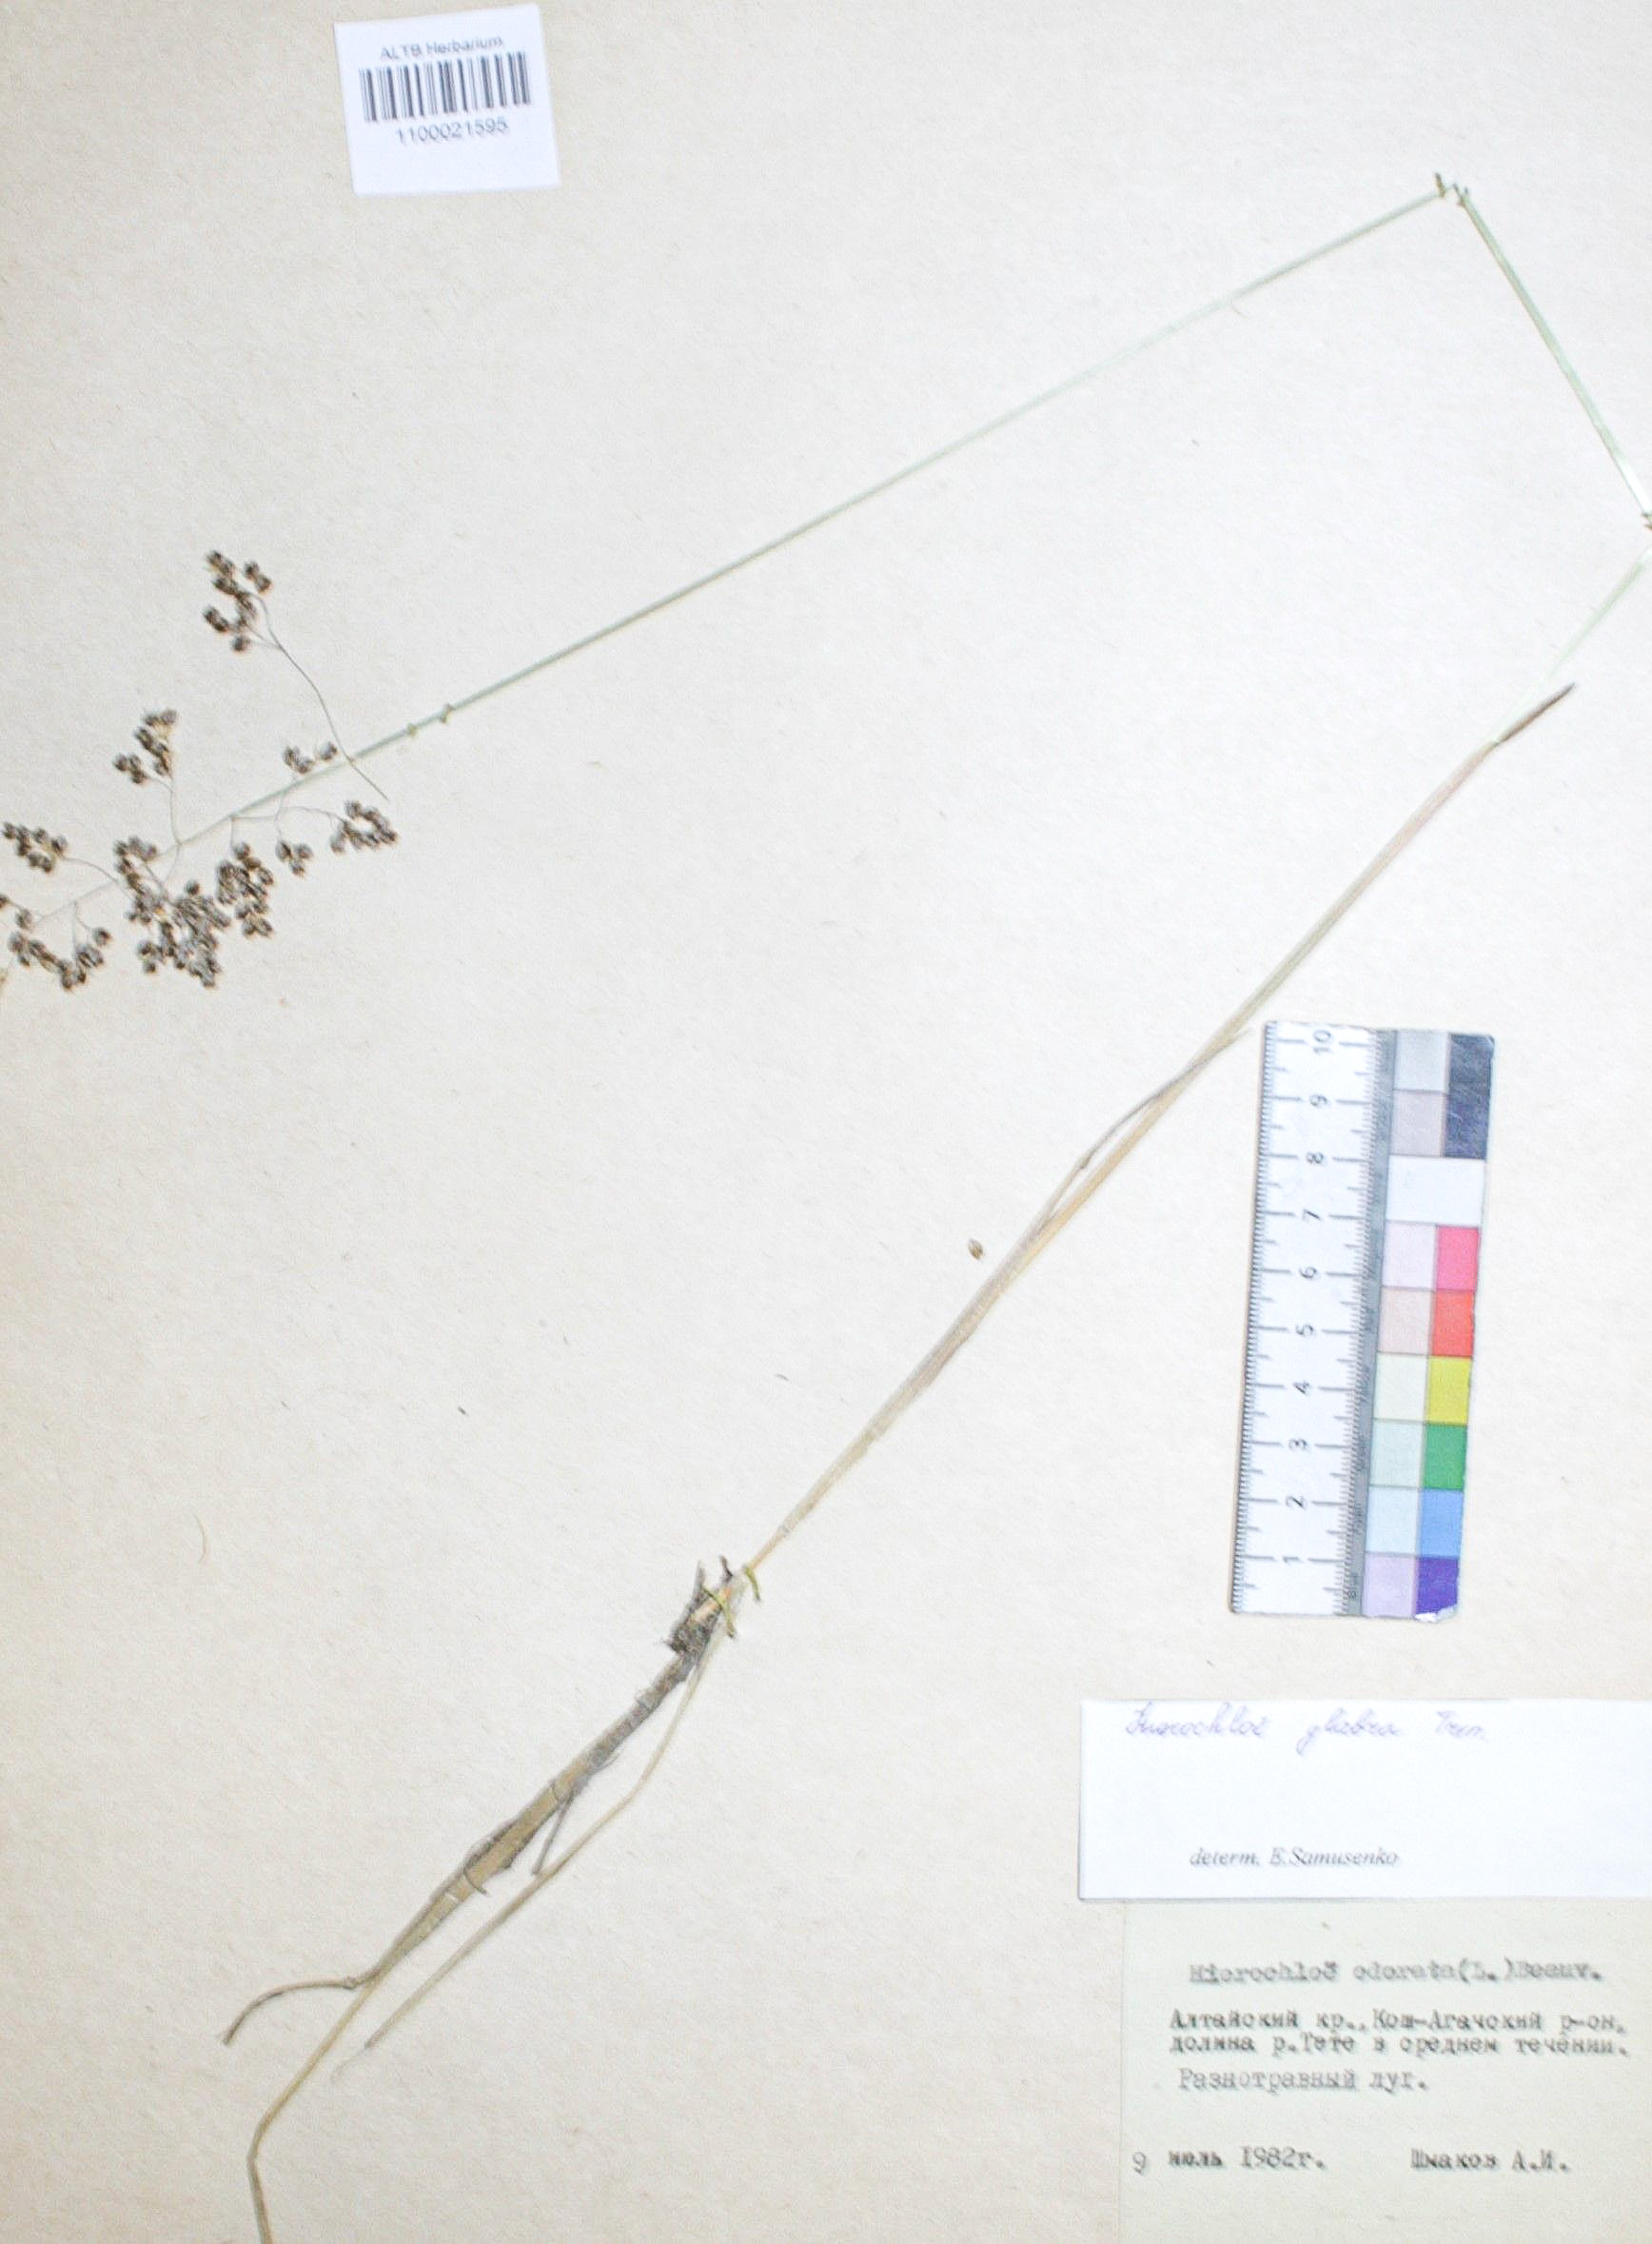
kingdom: Plantae
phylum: Tracheophyta
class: Liliopsida
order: Poales
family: Poaceae
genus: Anthoxanthum
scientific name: Anthoxanthum glabrum
